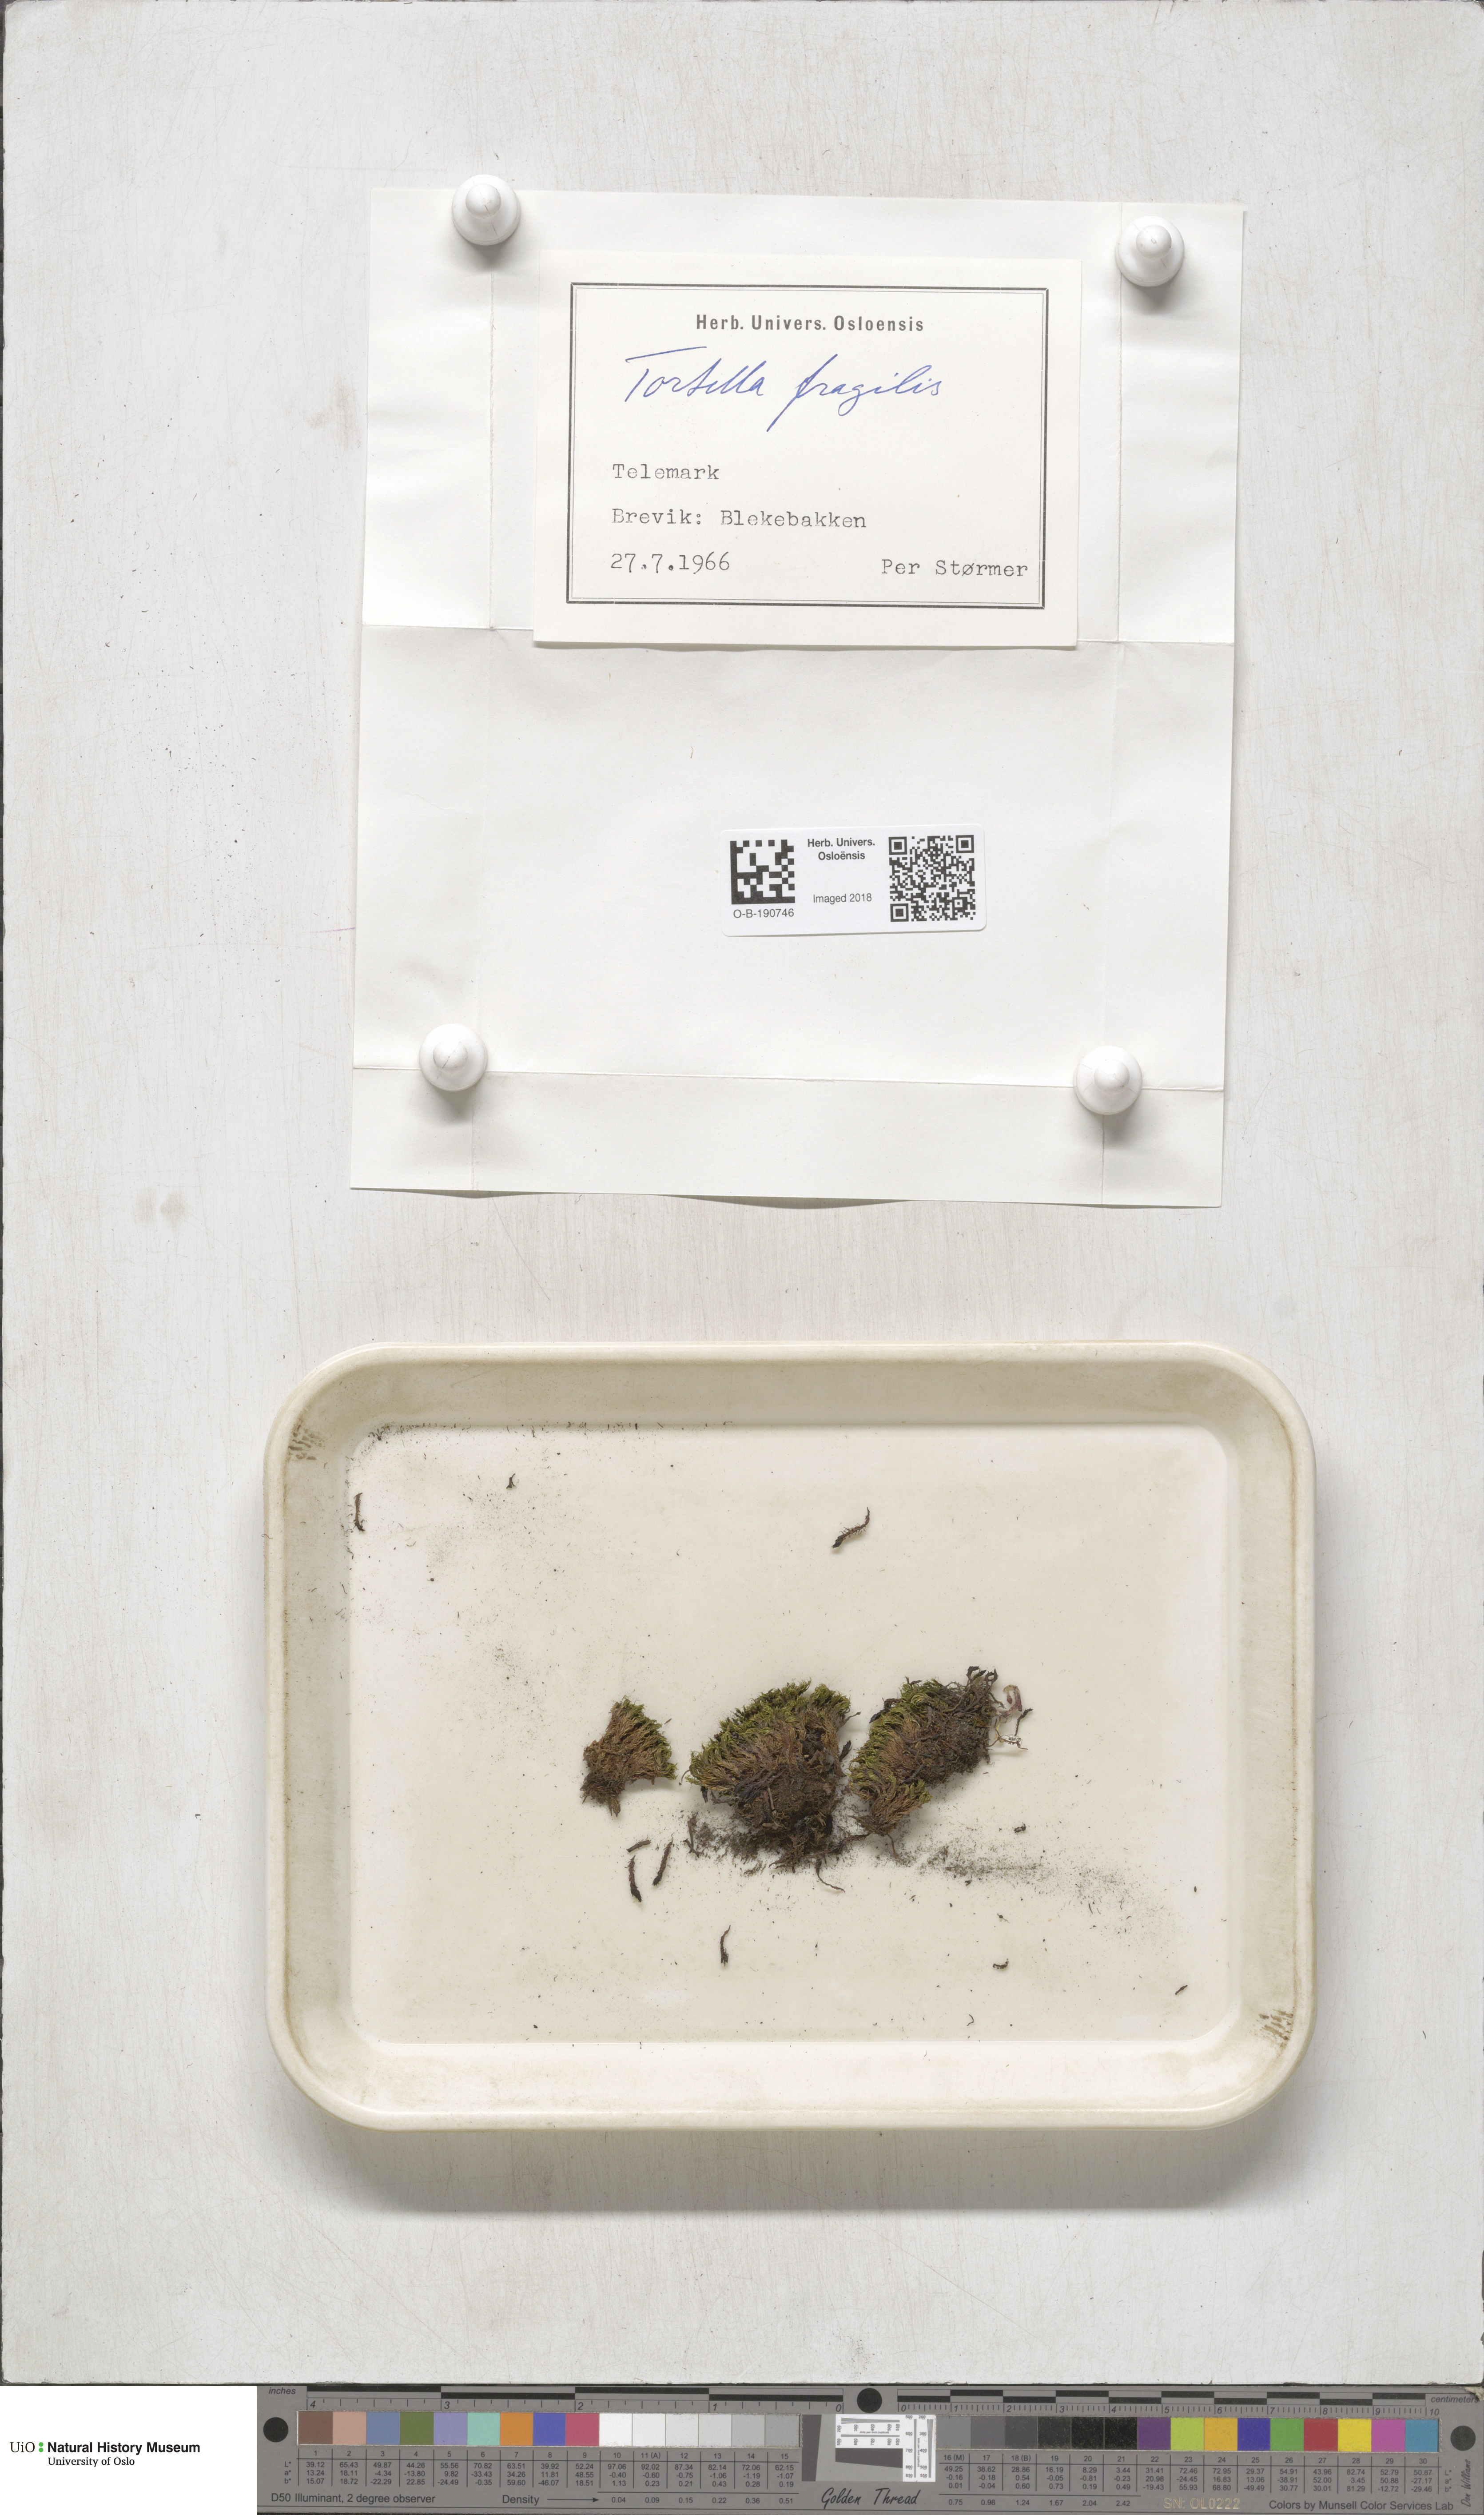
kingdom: Plantae
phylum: Bryophyta
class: Bryopsida
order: Pottiales
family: Pottiaceae
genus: Tortella
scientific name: Tortella fragilis
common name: Fragile twisted moss
